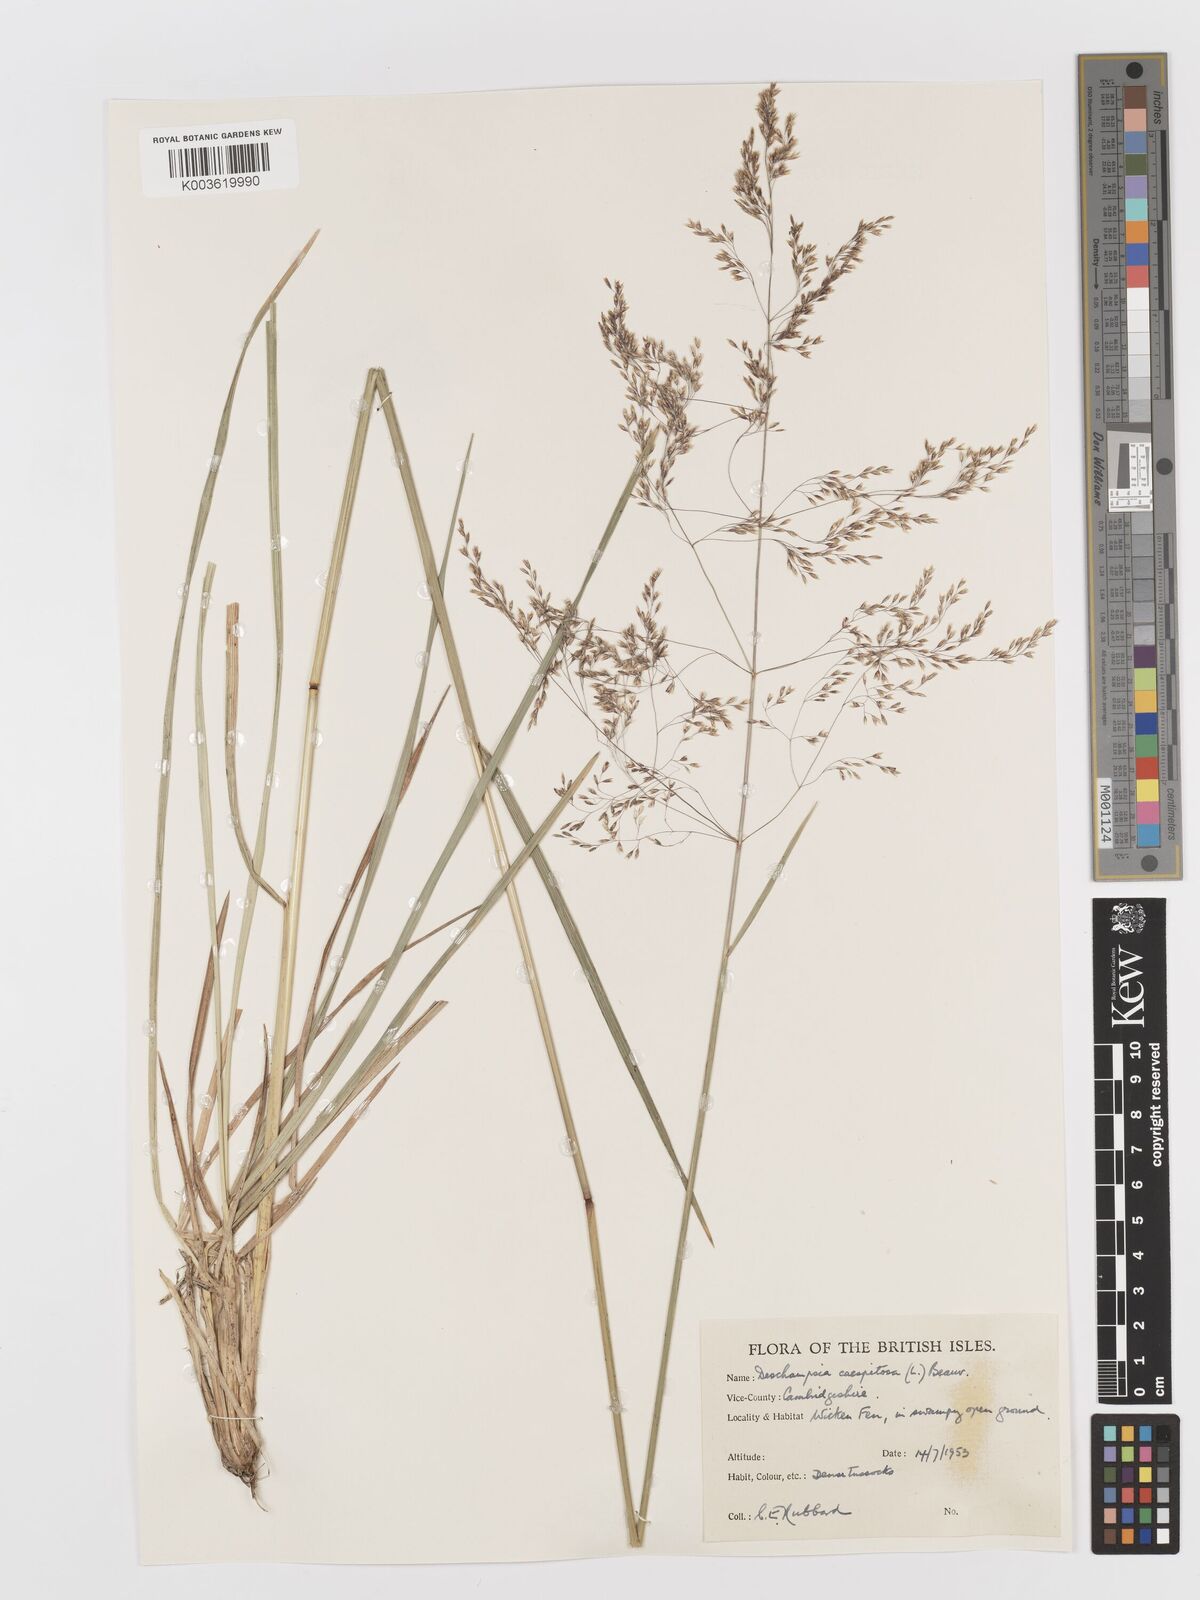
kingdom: Plantae
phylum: Tracheophyta
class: Liliopsida
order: Poales
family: Poaceae
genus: Deschampsia
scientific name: Deschampsia cespitosa
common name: Tufted hair-grass
